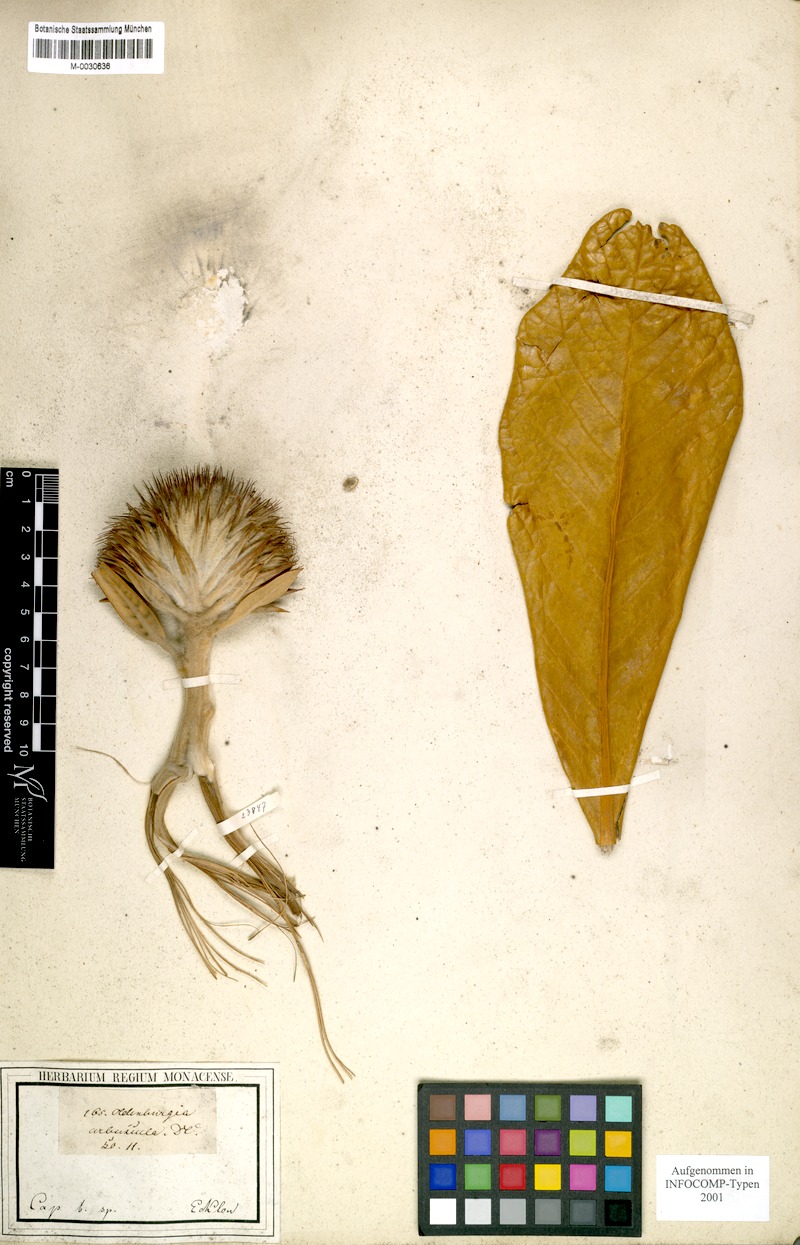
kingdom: Plantae
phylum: Tracheophyta
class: Magnoliopsida
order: Asterales
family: Asteraceae
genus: Oldenburgia
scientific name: Oldenburgia grandis
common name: Suurberg cushion bush
